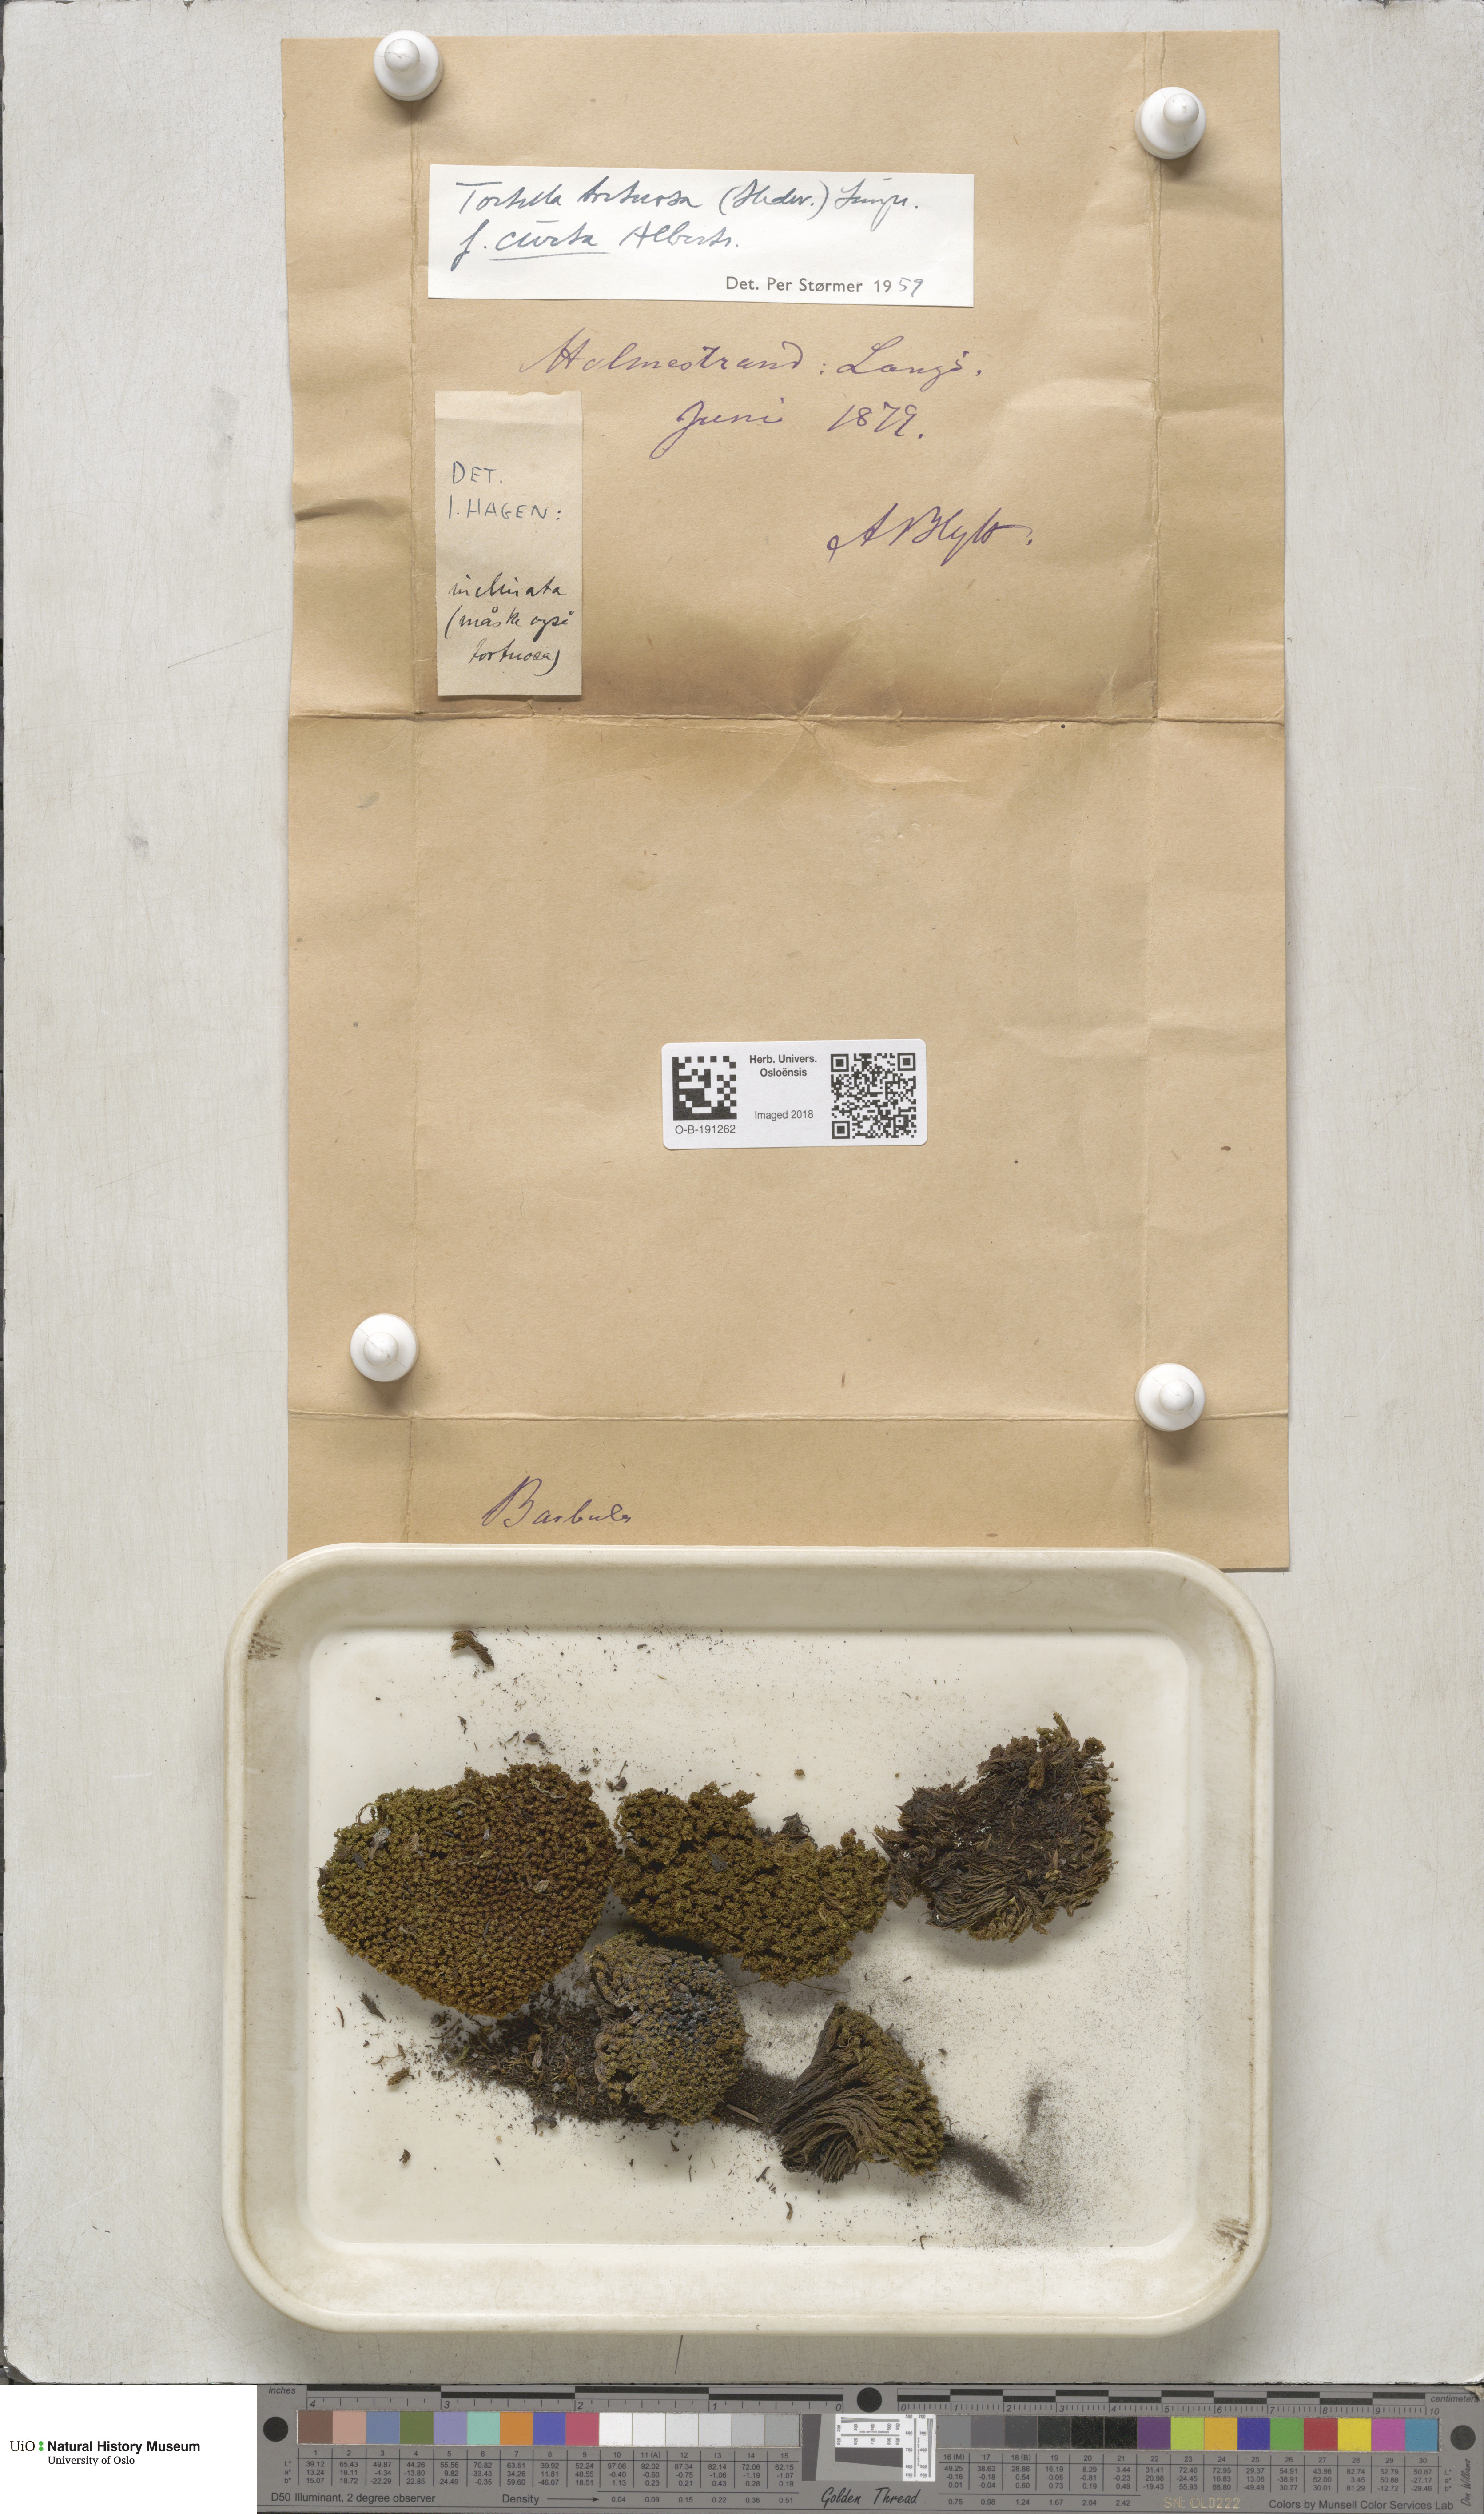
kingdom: Plantae
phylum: Bryophyta
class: Bryopsida
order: Pottiales
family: Pottiaceae
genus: Tortella
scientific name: Tortella tortuosa
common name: Frizzled crisp moss
